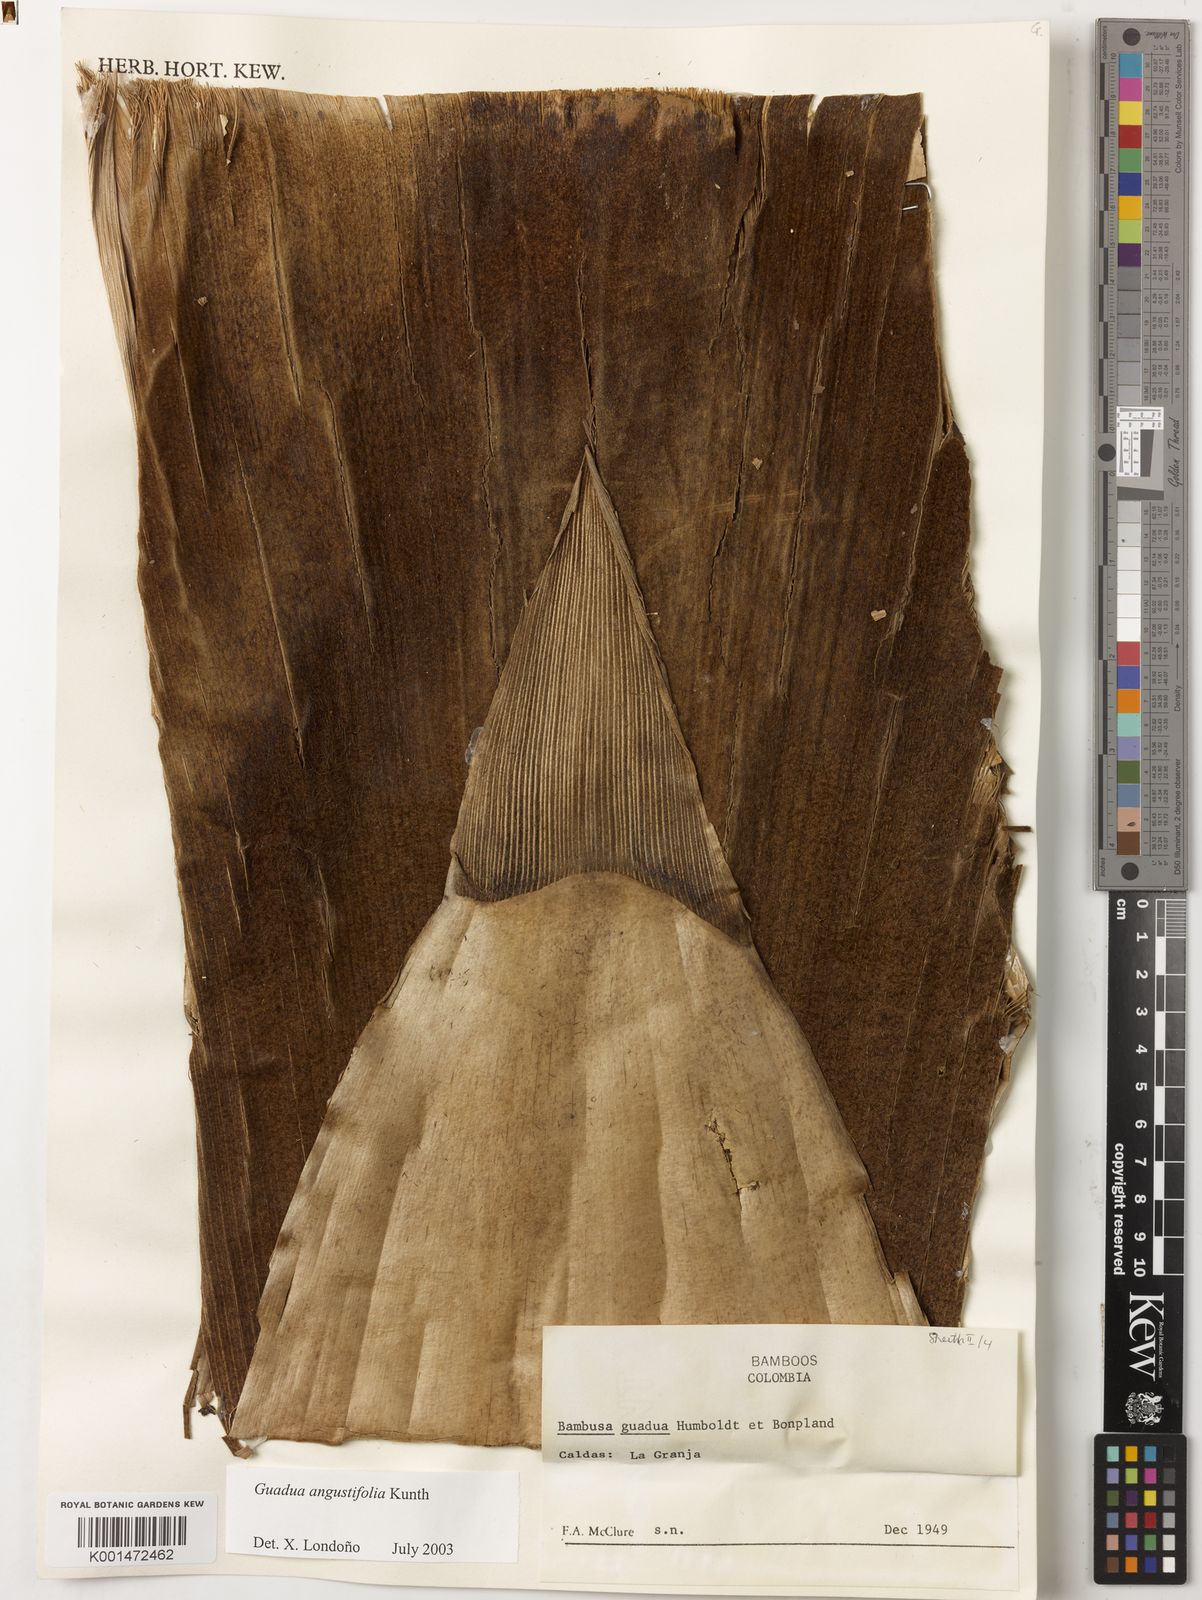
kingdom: Plantae
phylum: Tracheophyta
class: Liliopsida
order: Poales
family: Poaceae
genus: Guadua
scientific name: Guadua angustifolia
